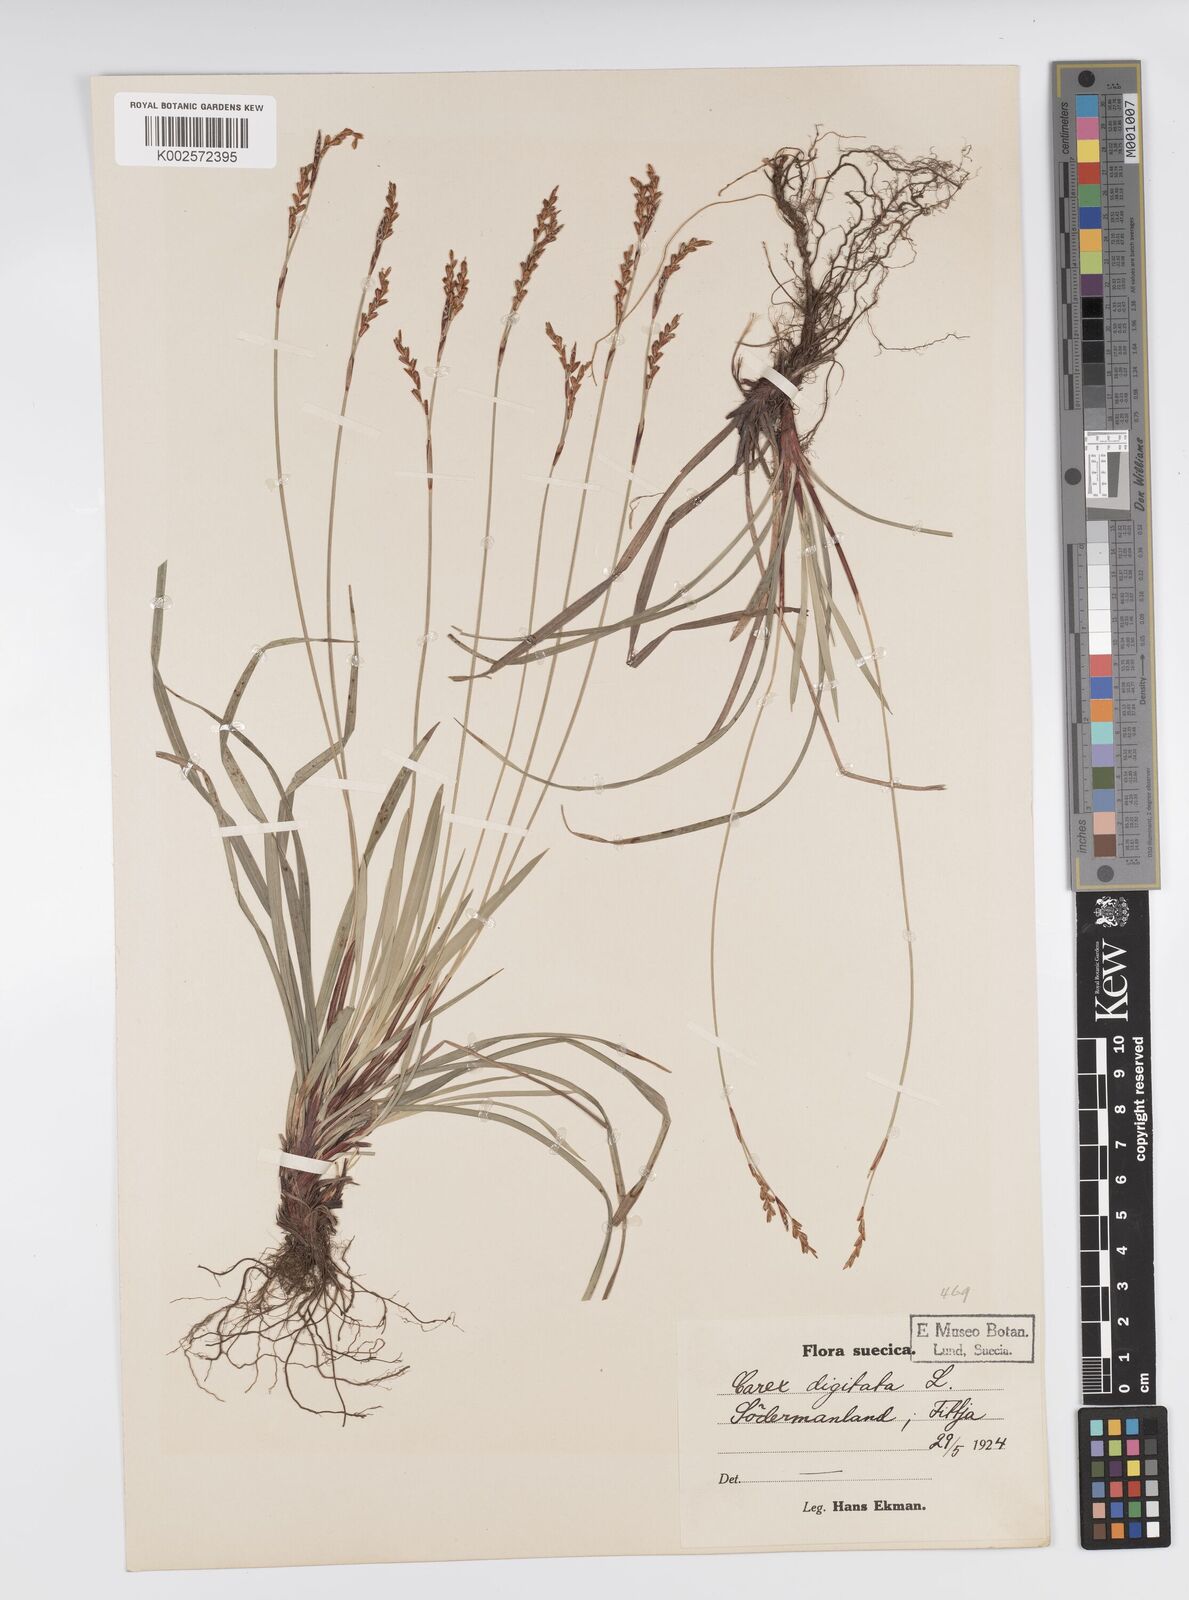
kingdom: Plantae
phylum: Tracheophyta
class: Liliopsida
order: Poales
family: Cyperaceae
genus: Carex
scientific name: Carex digitata
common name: Fingered sedge
